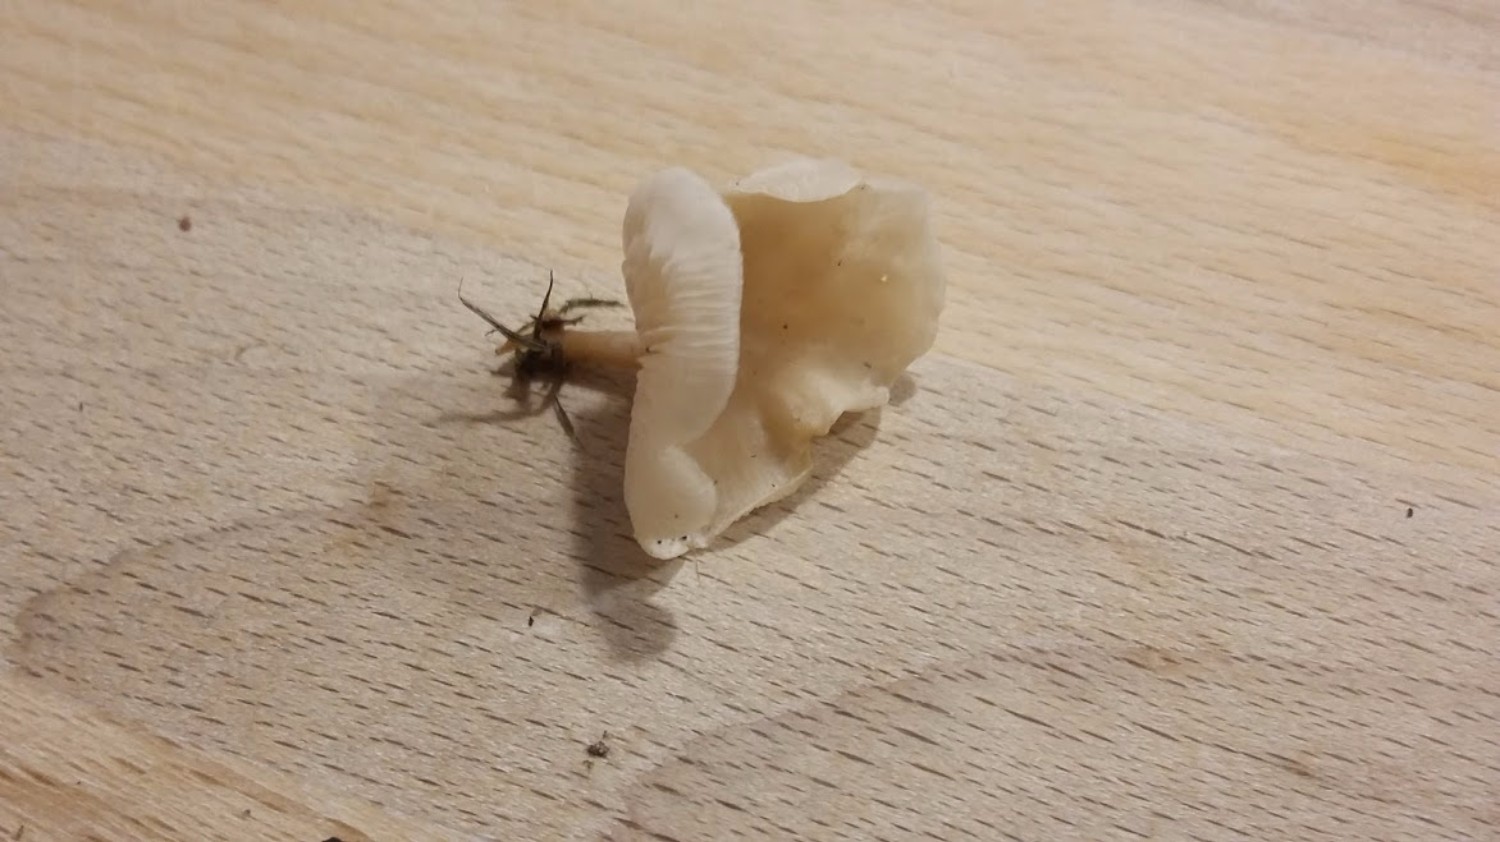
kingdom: Fungi
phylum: Basidiomycota
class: Agaricomycetes
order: Agaricales
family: Tricholomataceae
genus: Clitocybe
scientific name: Clitocybe fragrans
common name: vellugtende tragthat
